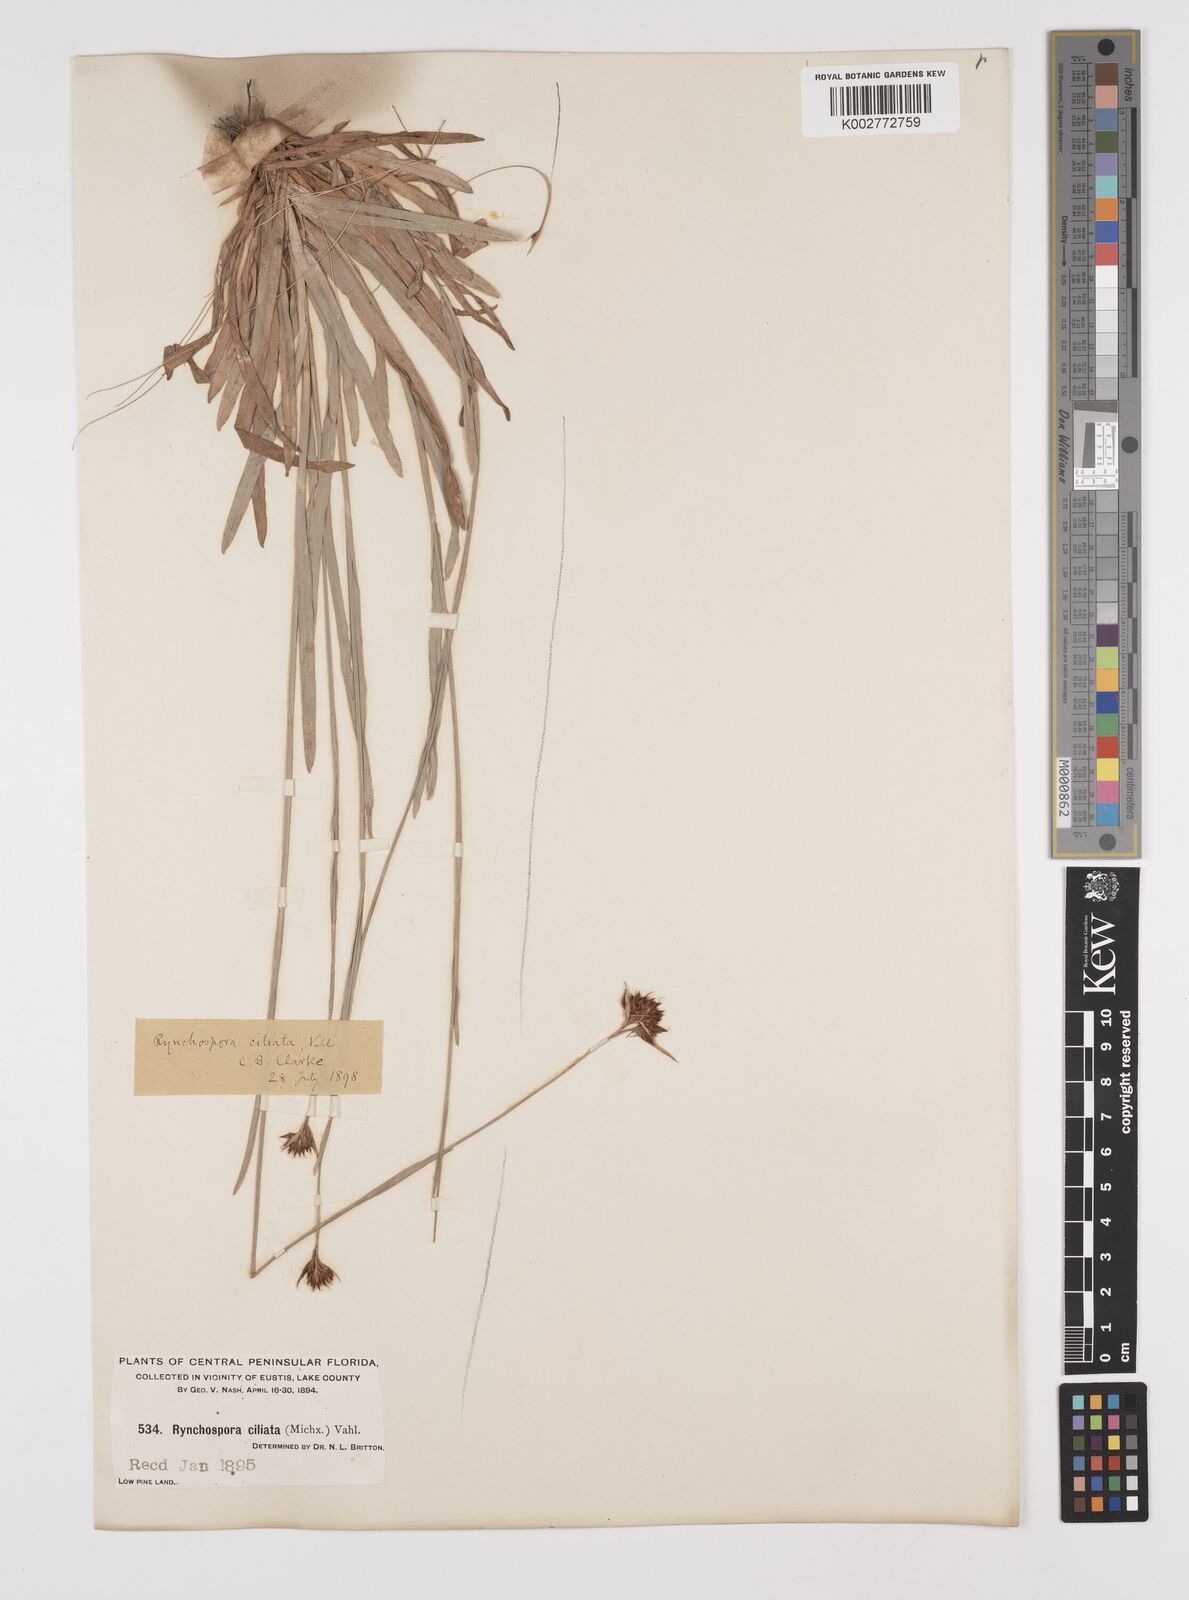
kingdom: Plantae
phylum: Tracheophyta
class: Liliopsida
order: Poales
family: Cyperaceae
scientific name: Cyperaceae
